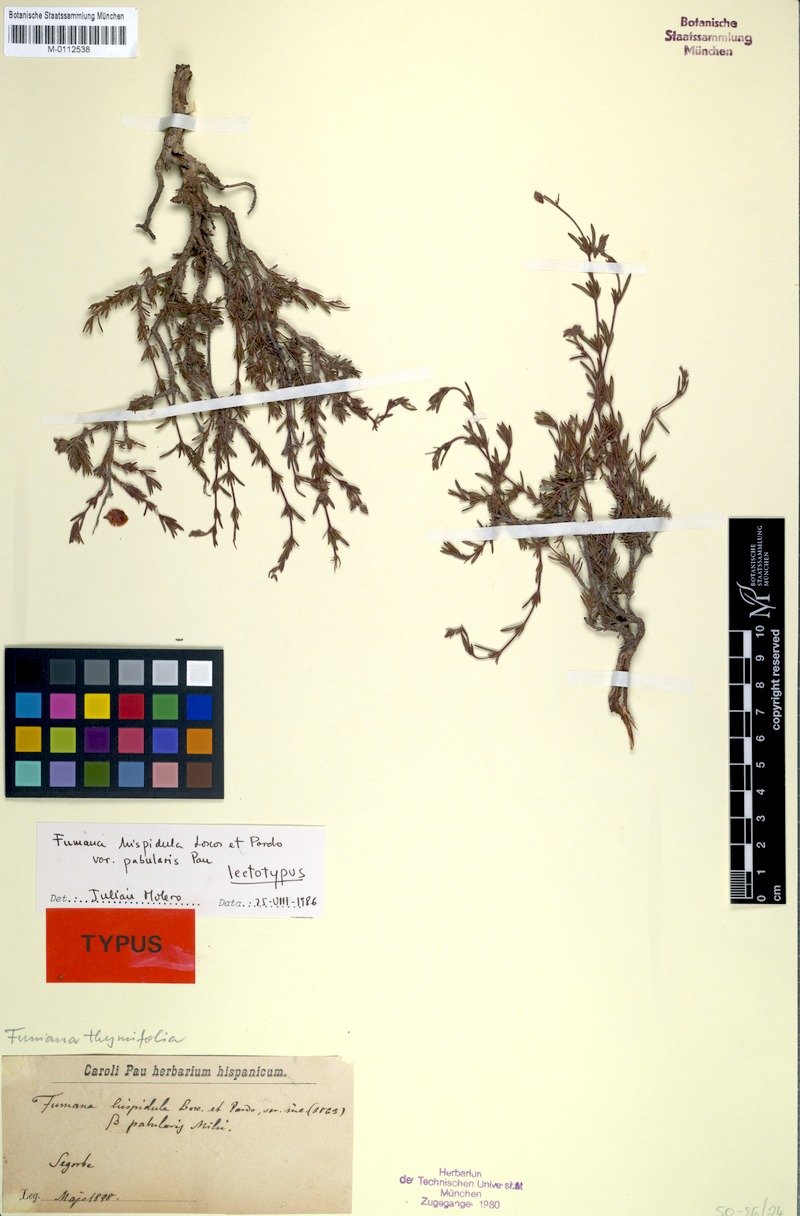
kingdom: Plantae
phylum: Tracheophyta
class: Magnoliopsida
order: Malvales
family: Cistaceae
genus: Fumana
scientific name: Fumana laevis
